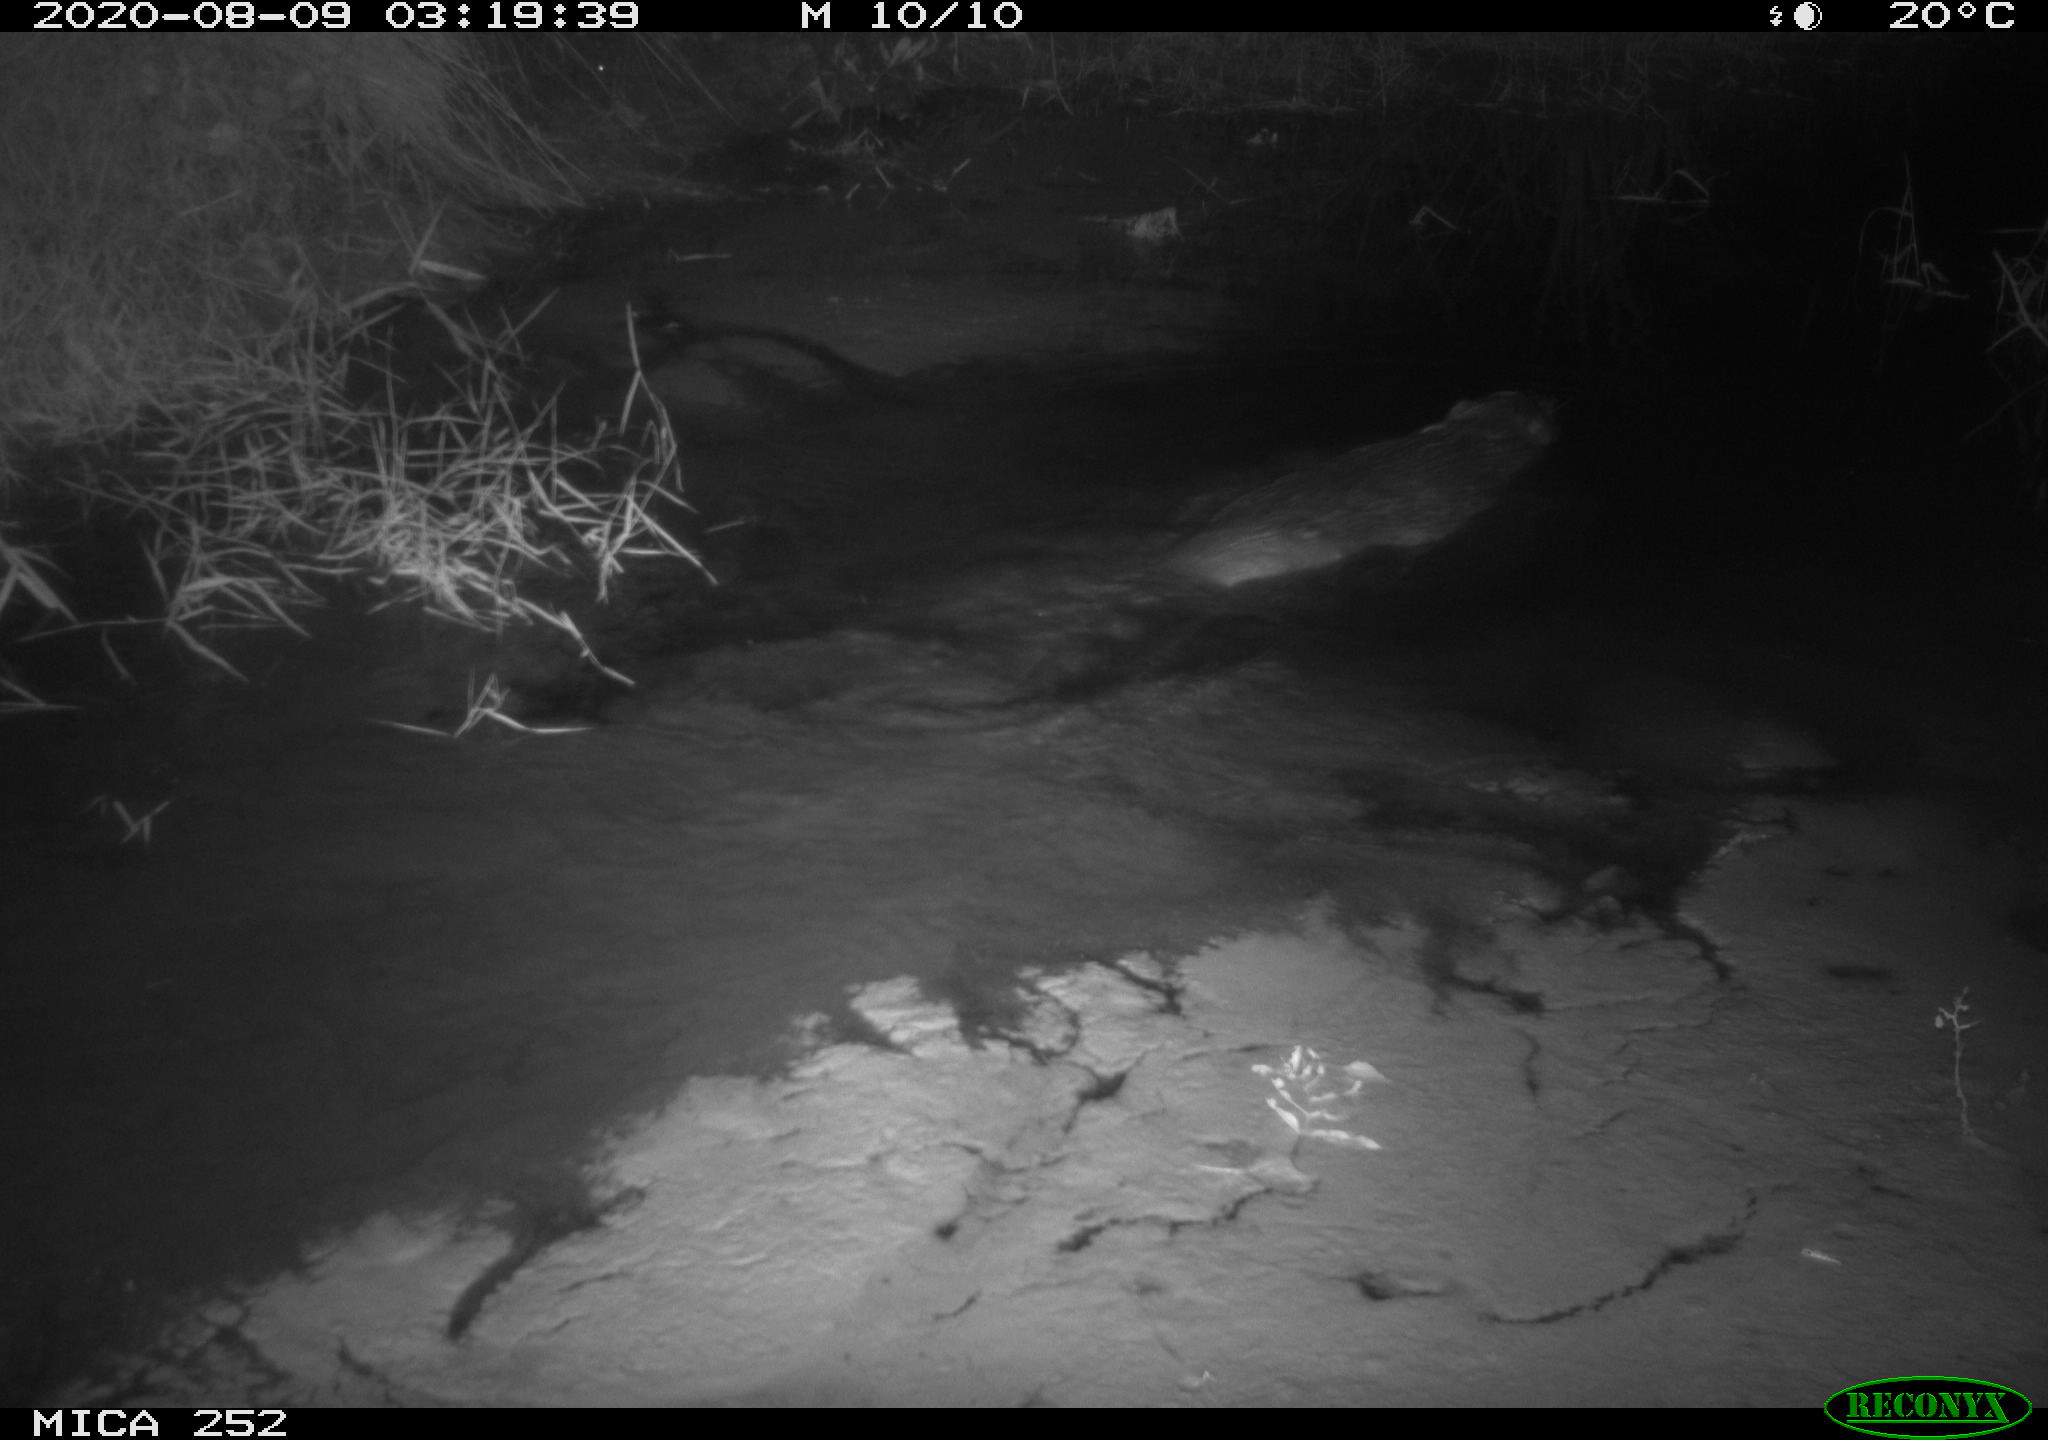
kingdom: Animalia
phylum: Chordata
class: Mammalia
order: Rodentia
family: Castoridae
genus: Castor
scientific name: Castor fiber
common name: Eurasian beaver
